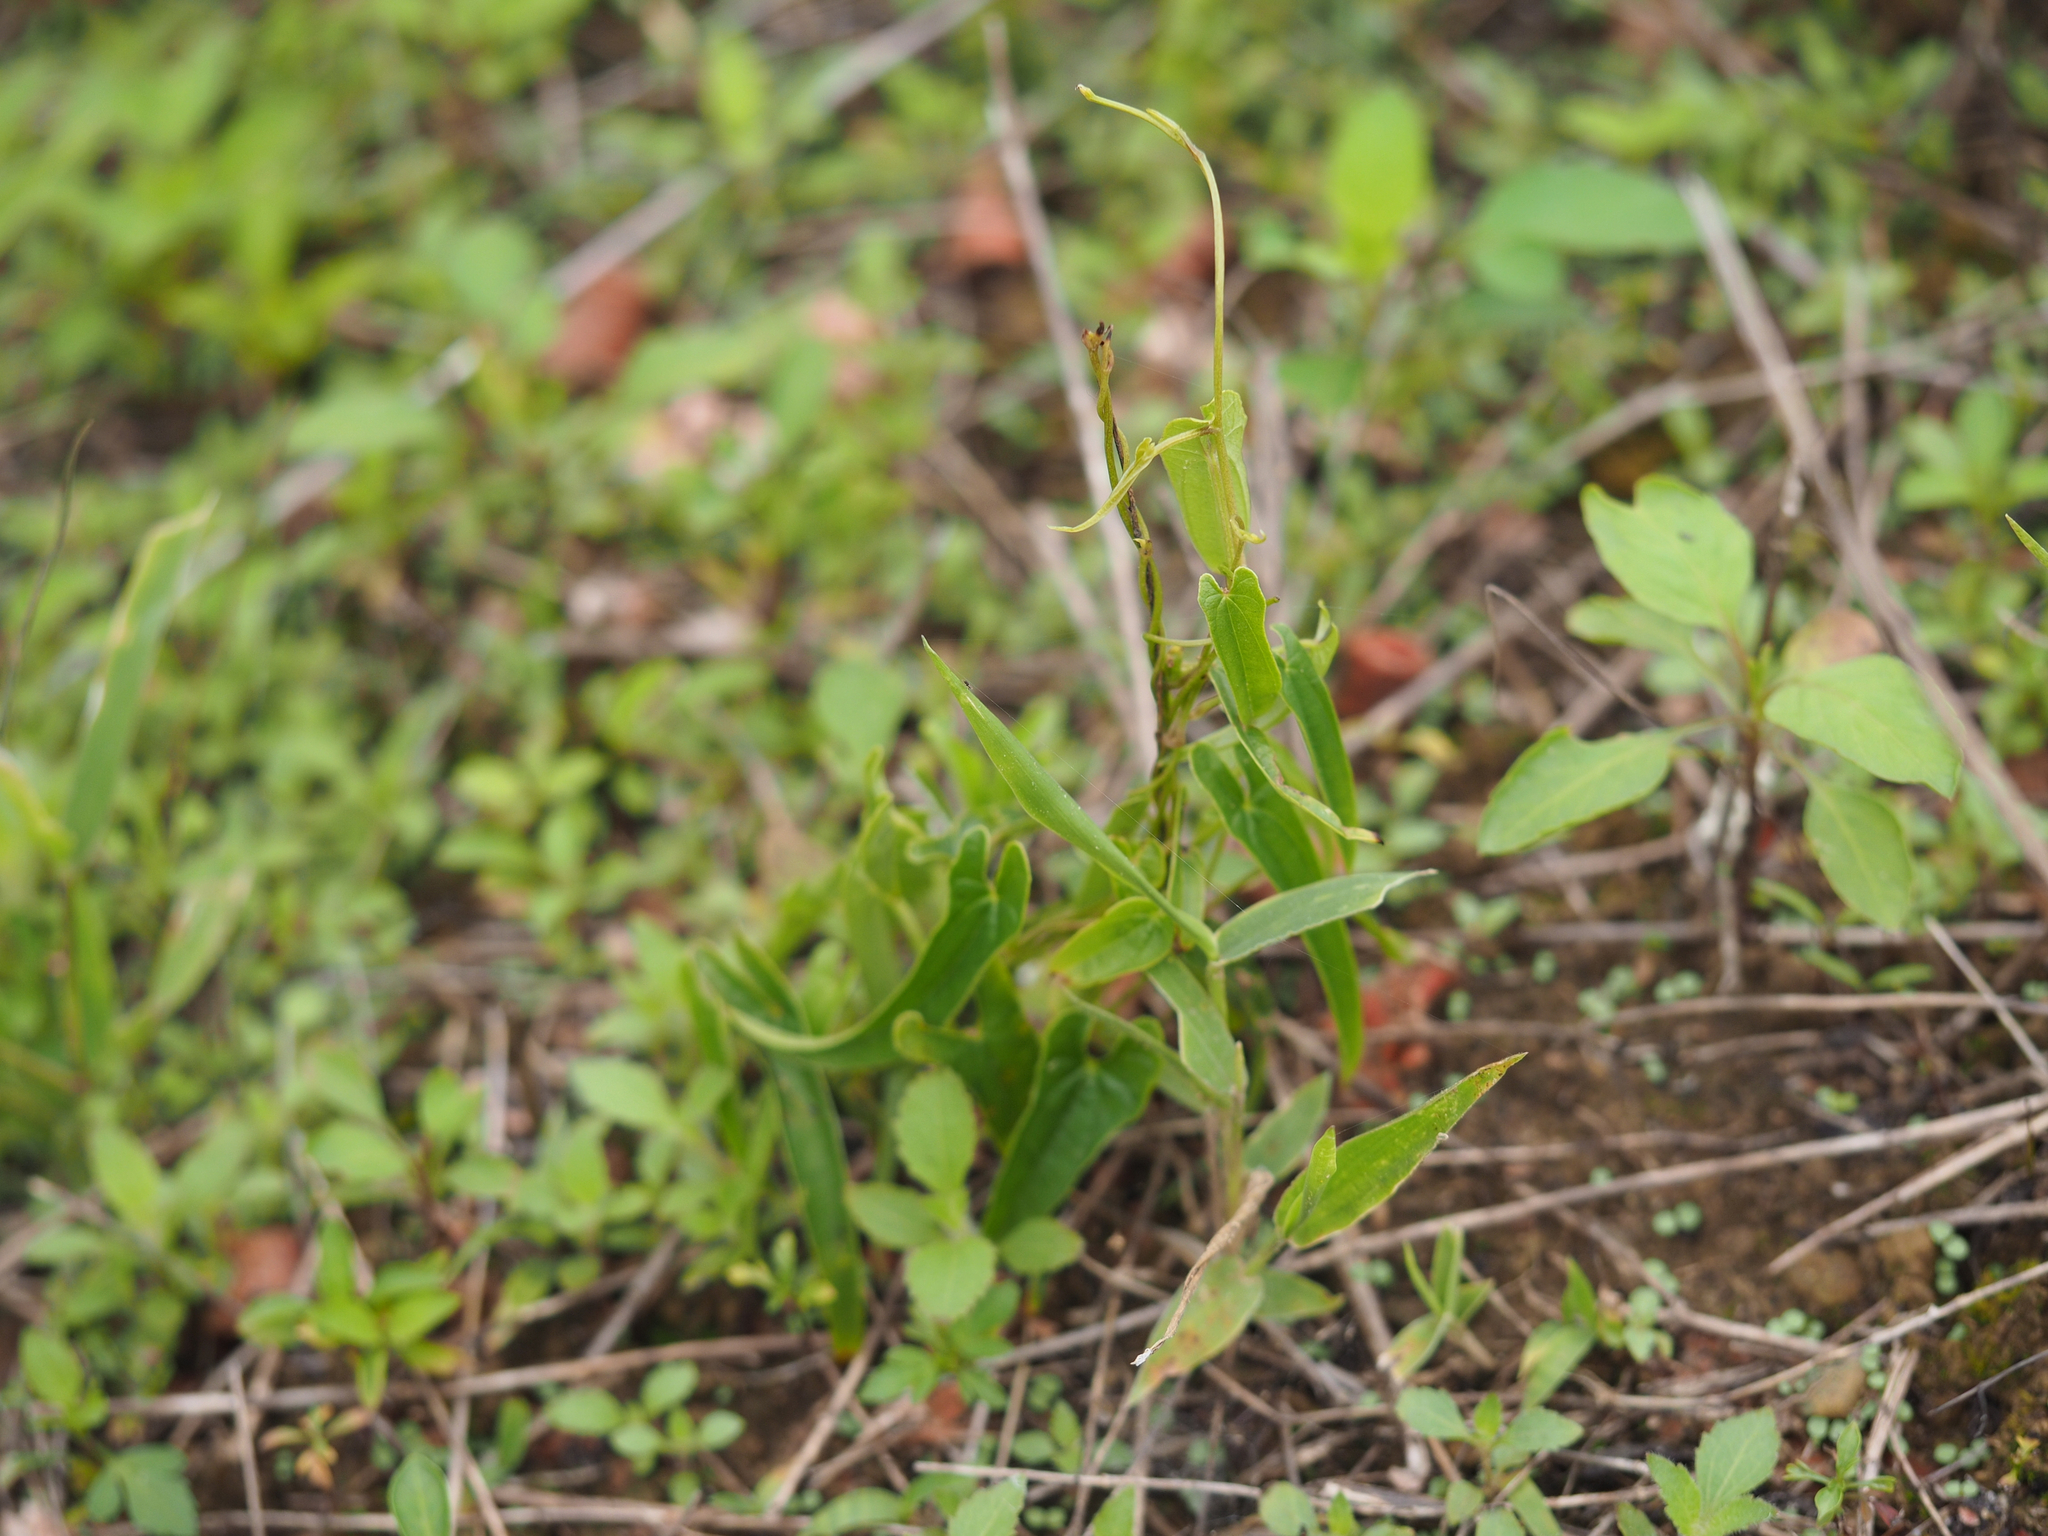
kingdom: Plantae
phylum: Tracheophyta
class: Liliopsida
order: Dioscoreales
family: Dioscoreaceae
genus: Dioscorea
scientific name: Dioscorea japonica
